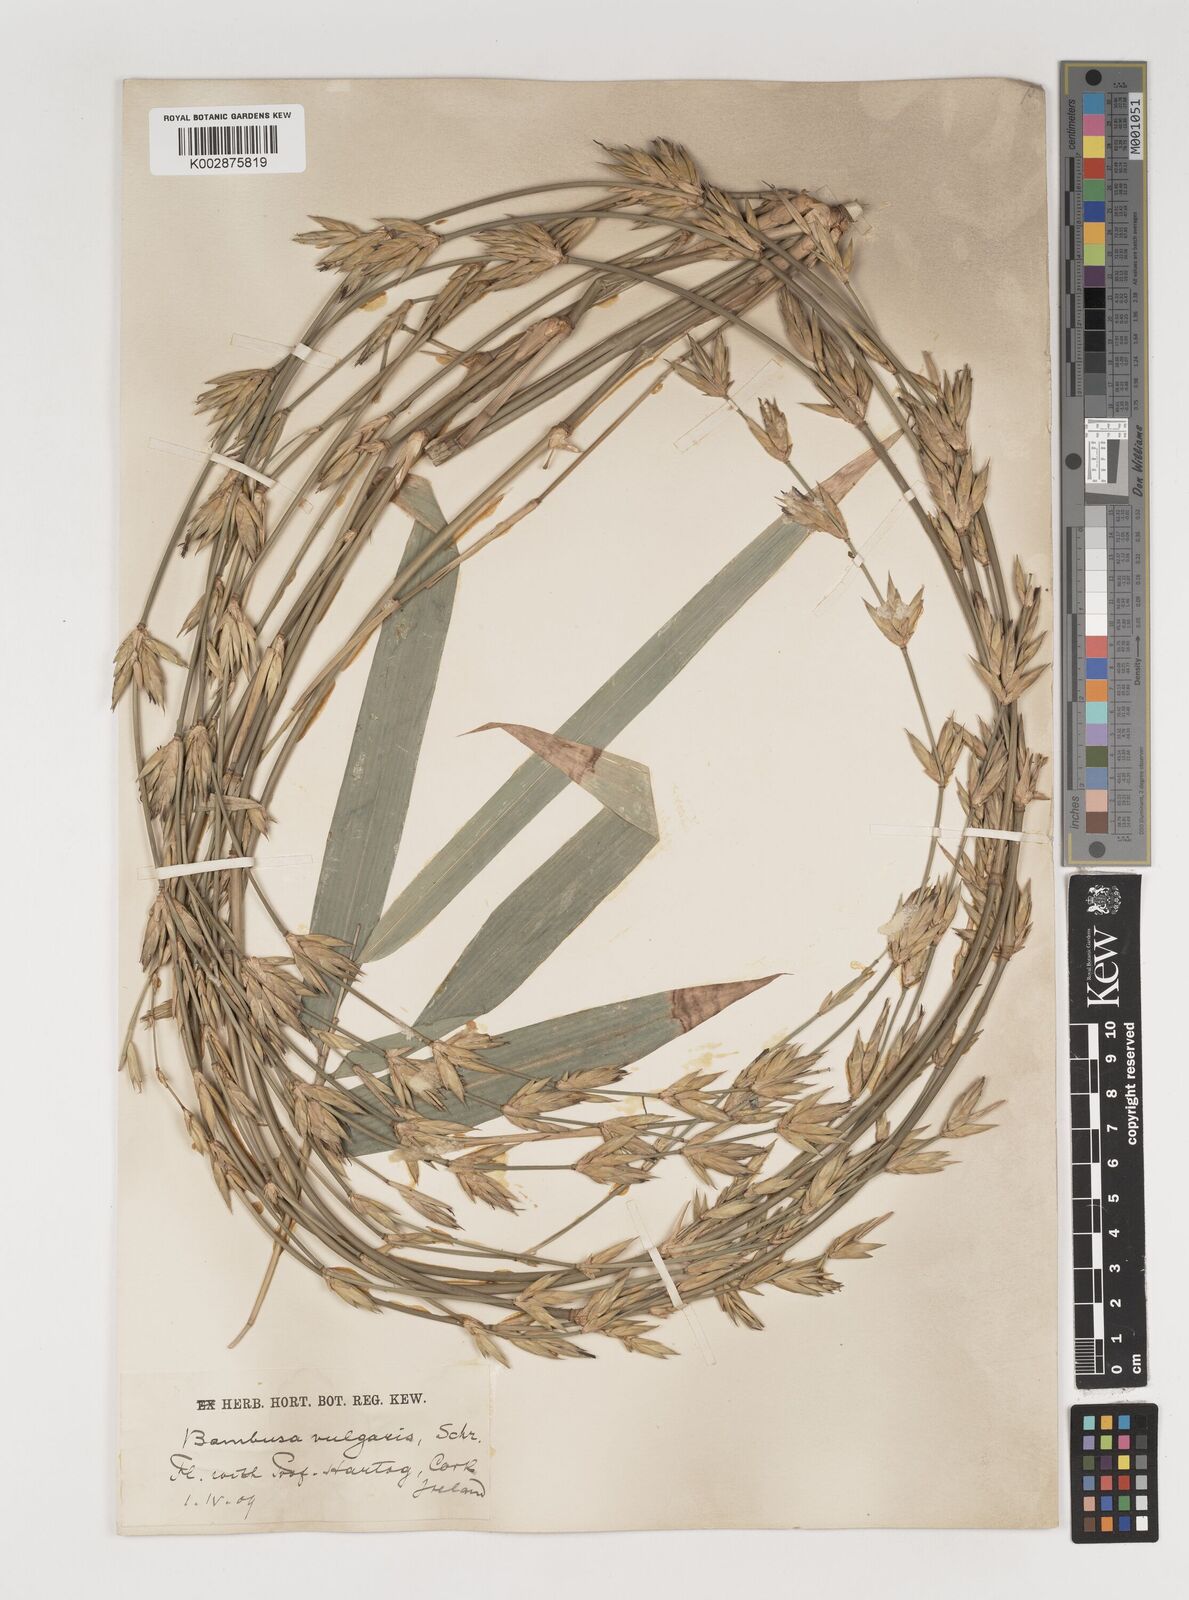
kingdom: Plantae
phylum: Tracheophyta
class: Liliopsida
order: Poales
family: Poaceae
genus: Bambusa
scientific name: Bambusa balcooa
